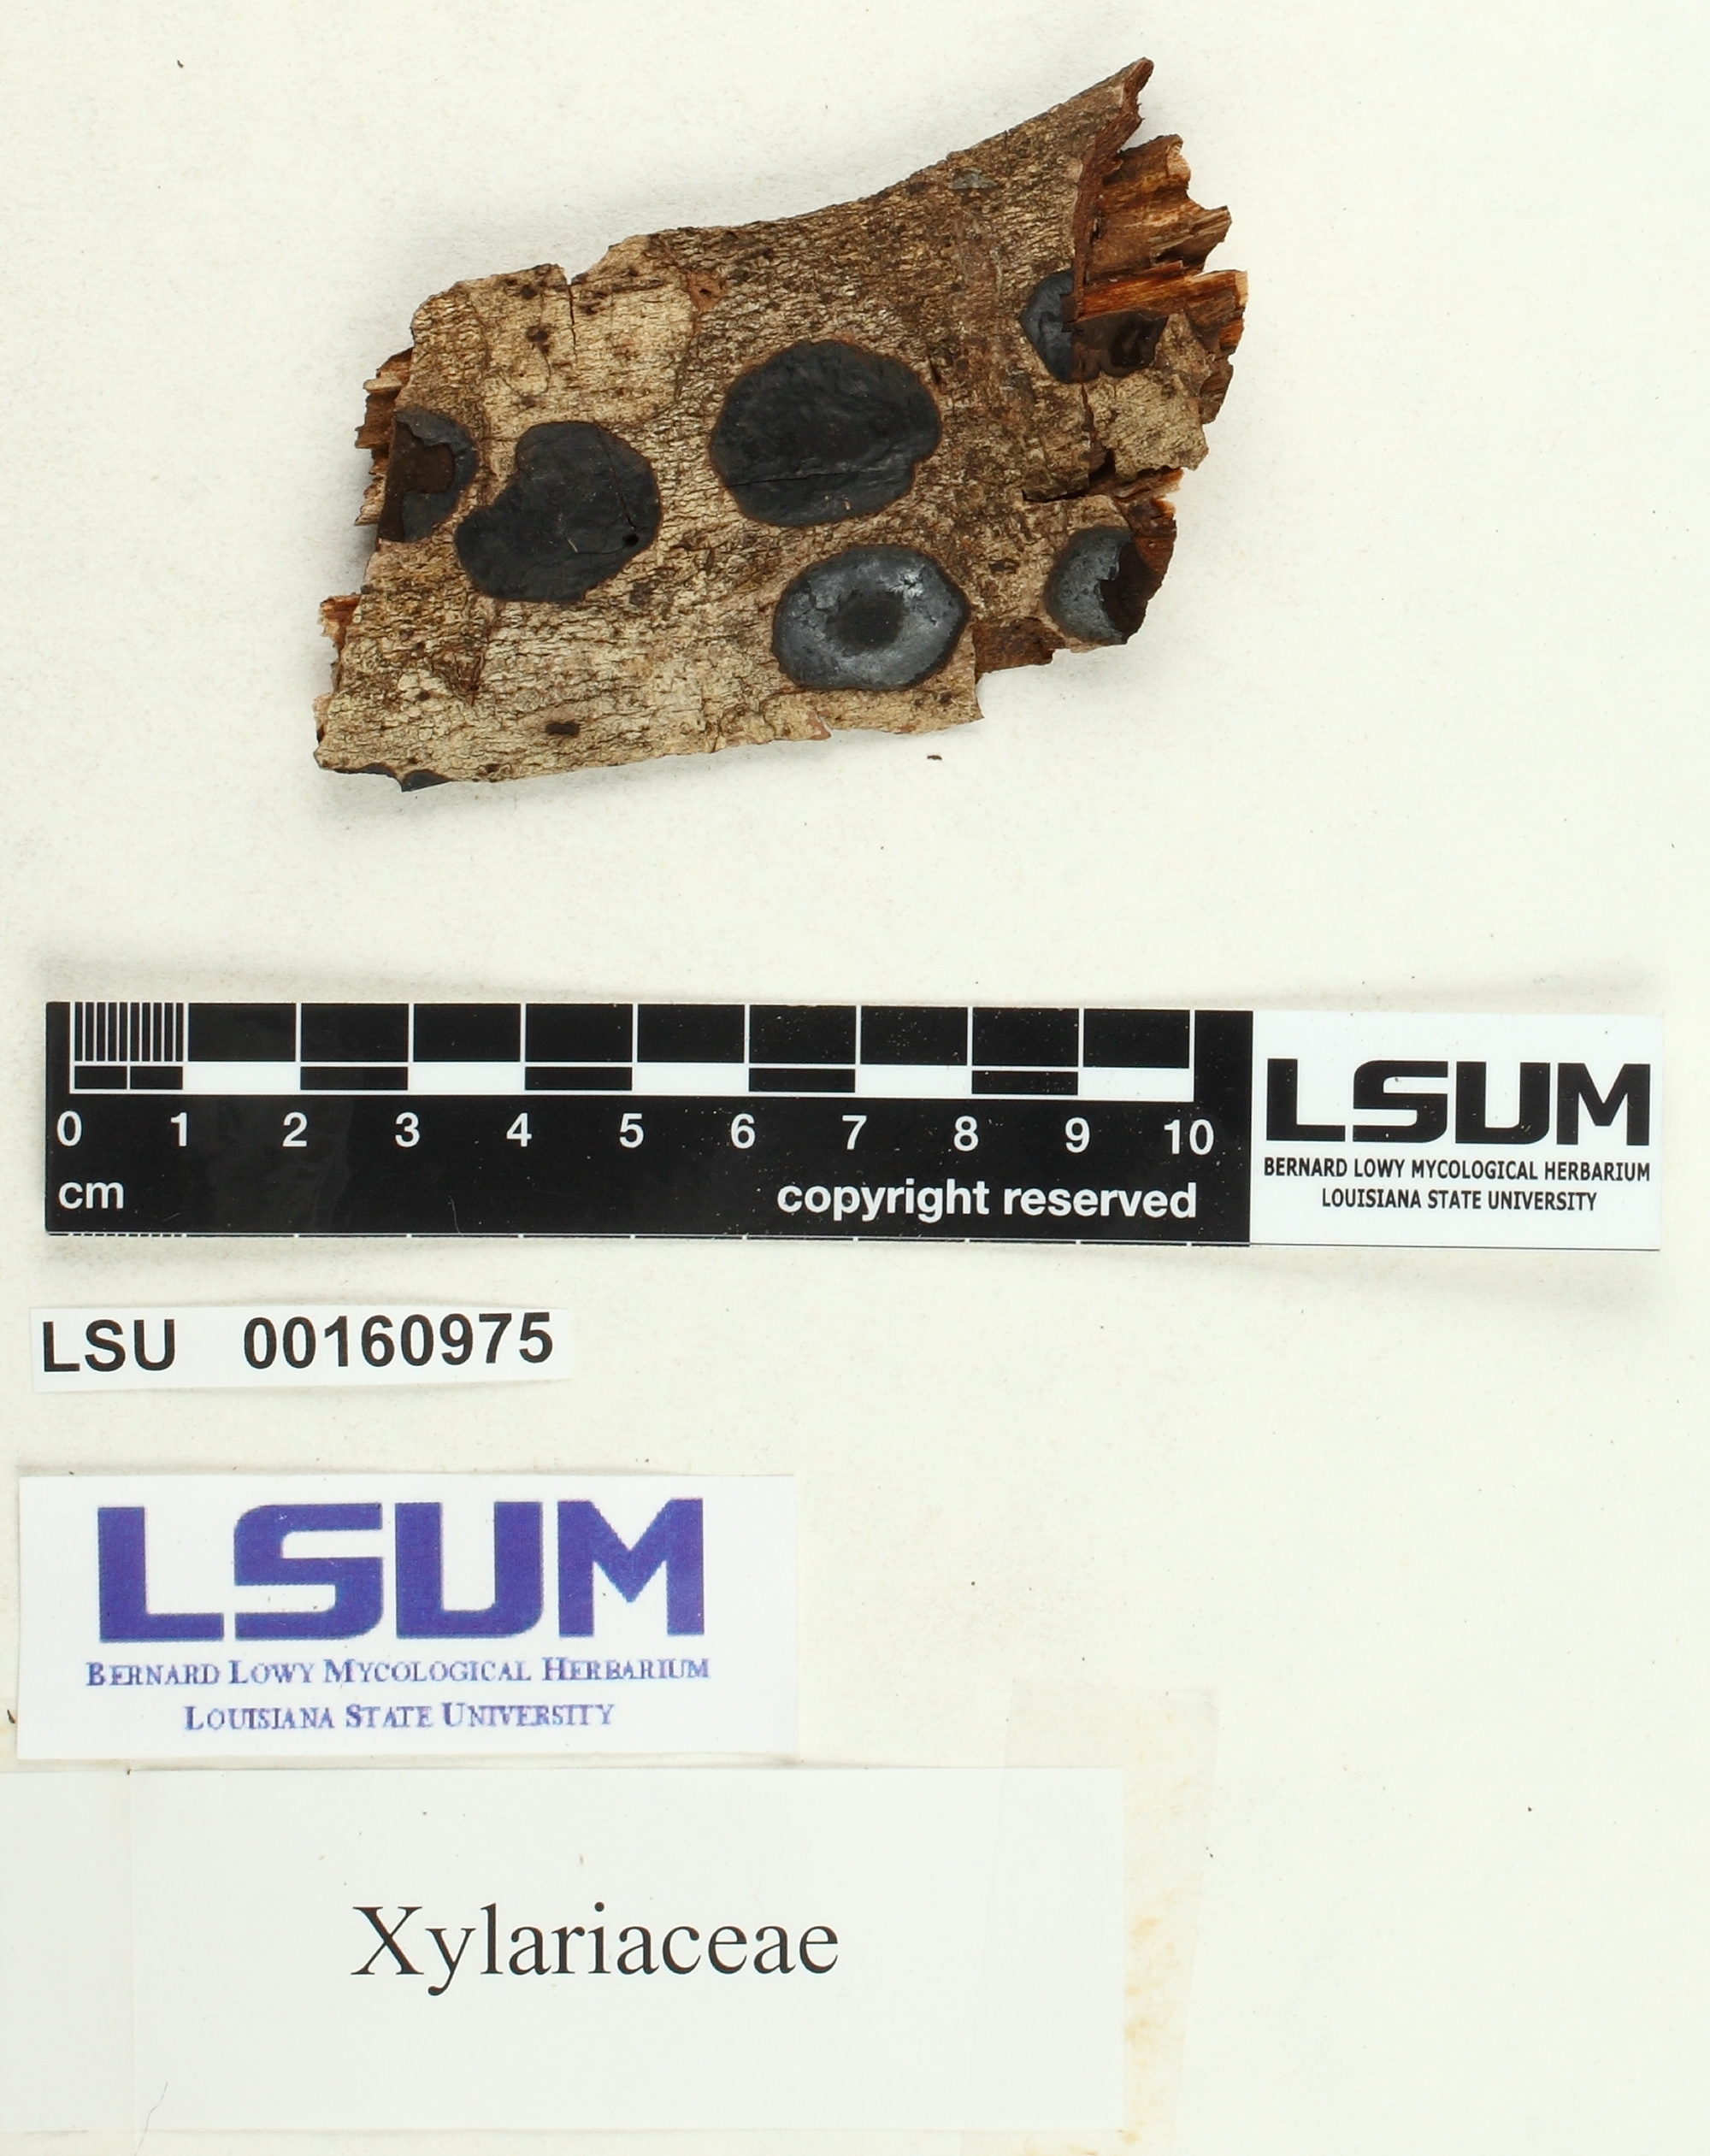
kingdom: Fungi
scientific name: Fungi
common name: Fungi
